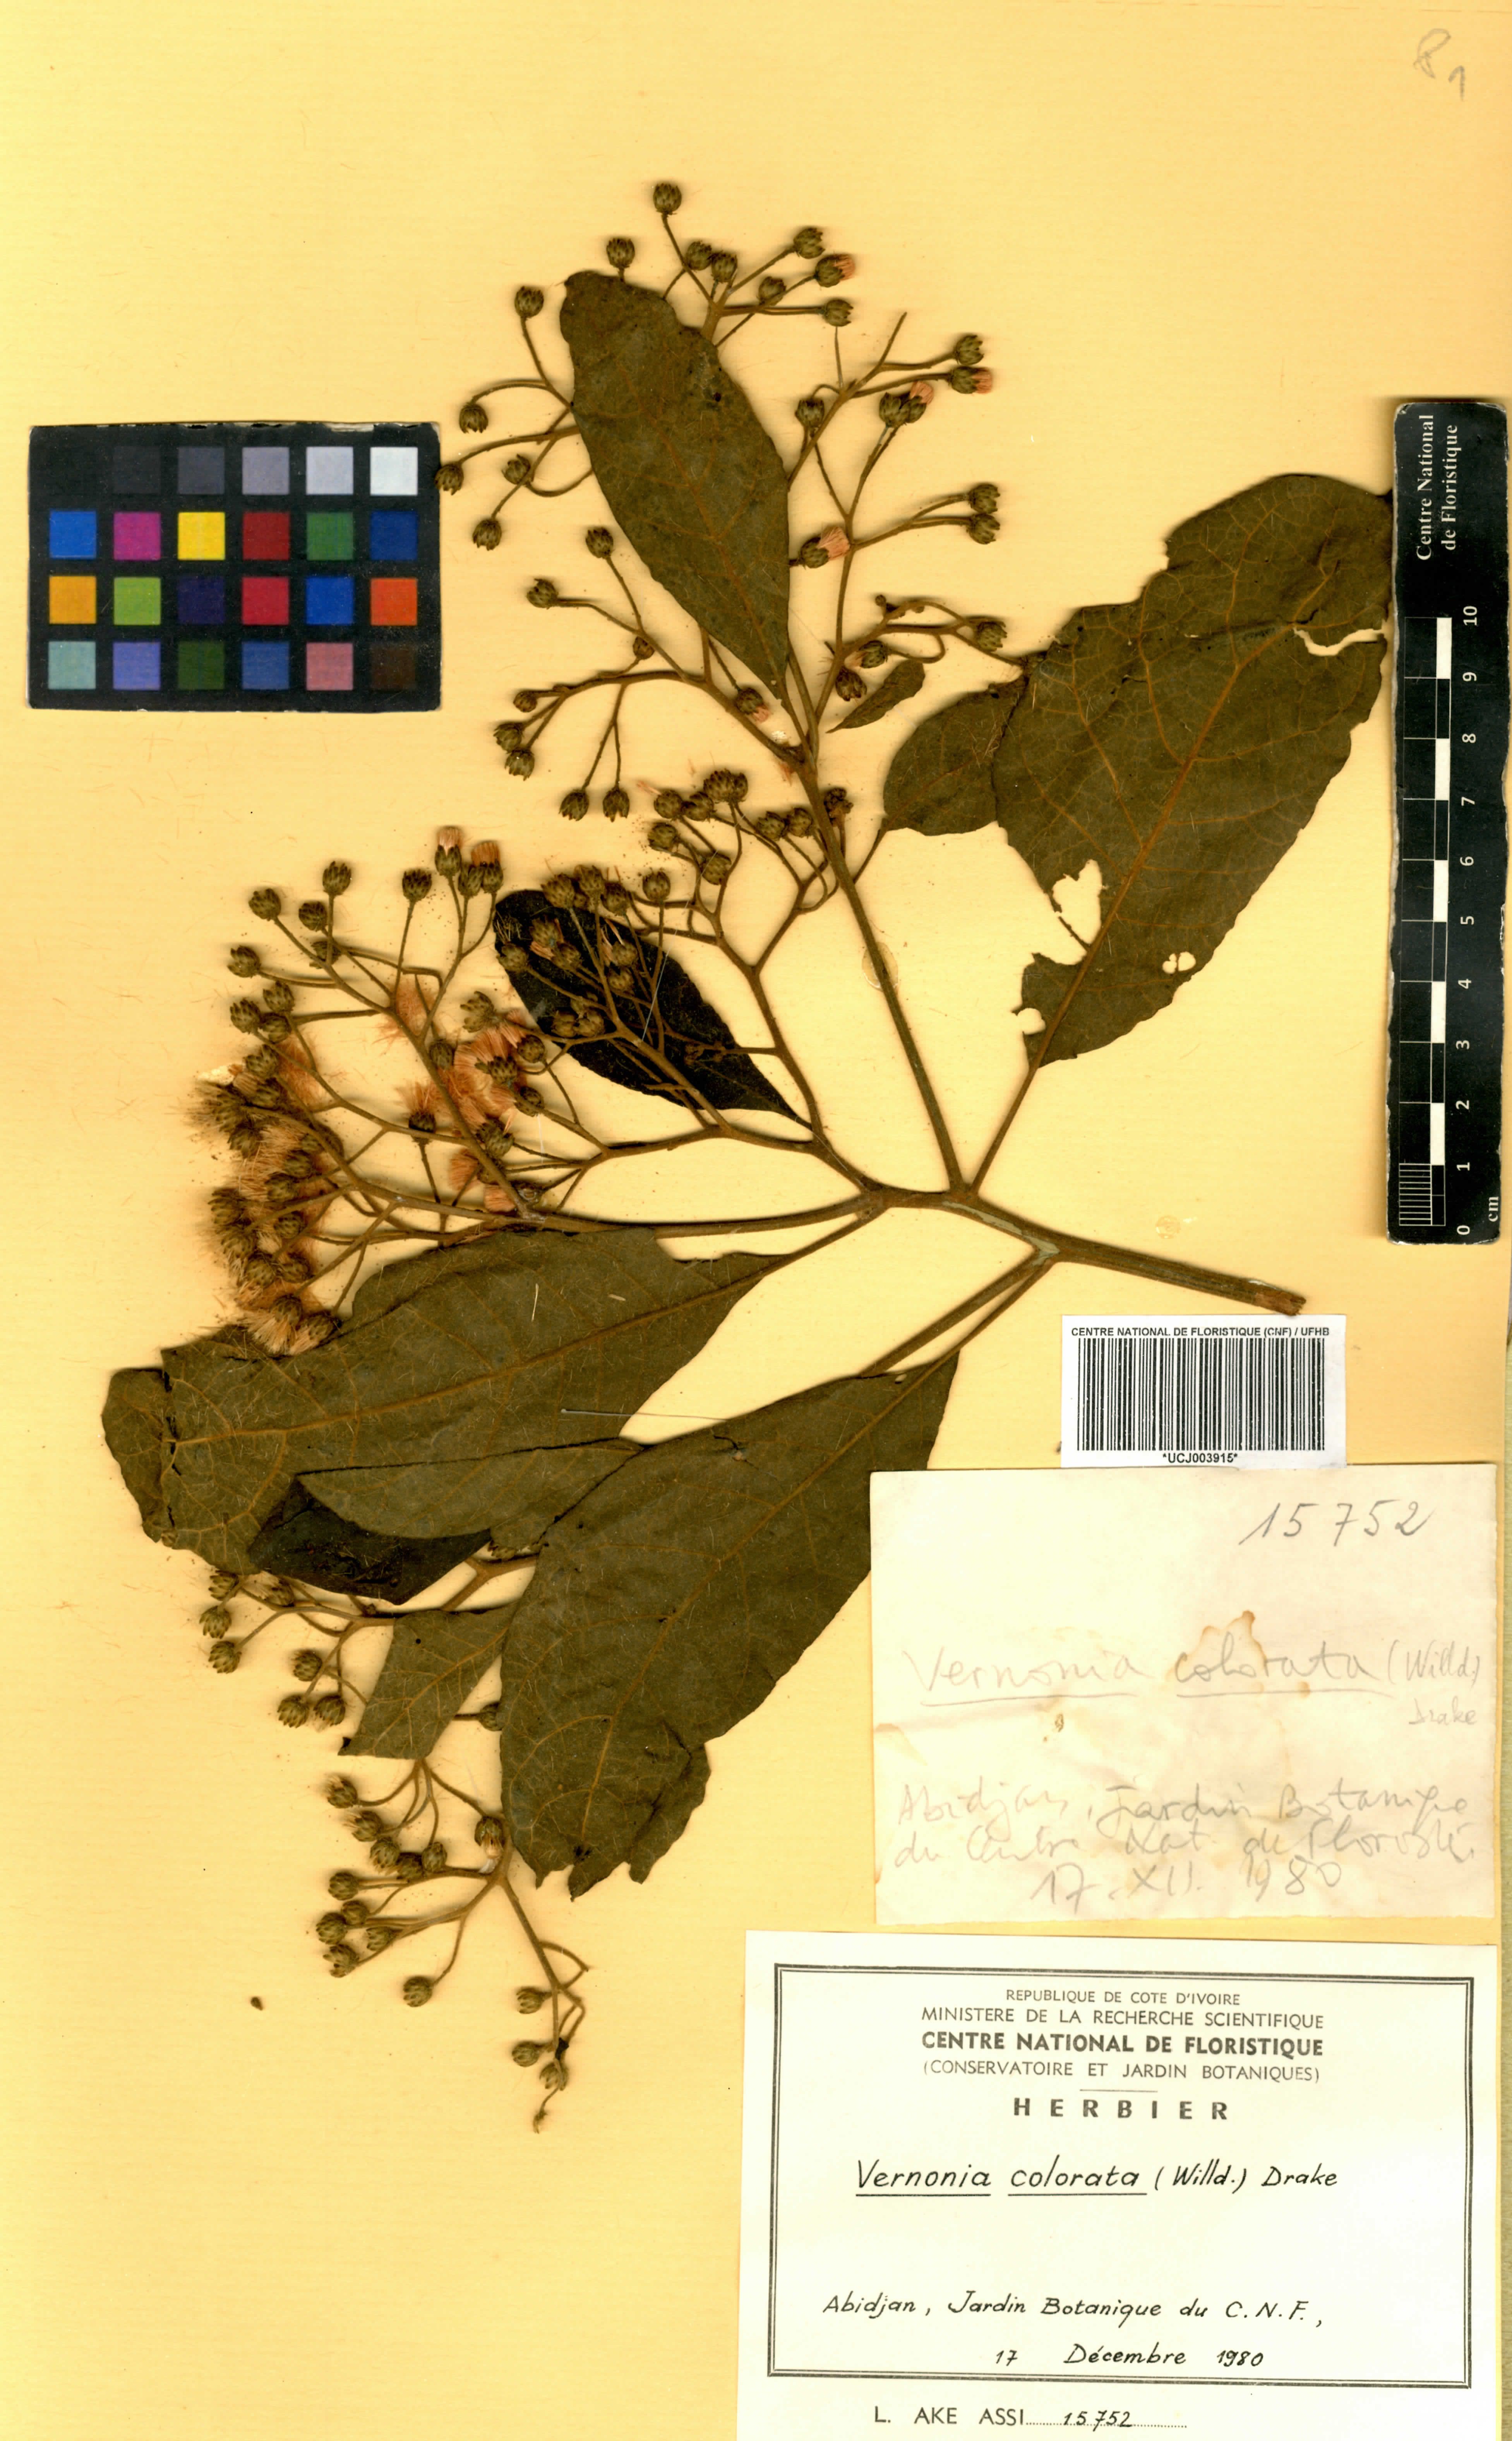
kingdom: Plantae
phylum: Tracheophyta
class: Magnoliopsida
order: Asterales
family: Asteraceae
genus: Vernonia
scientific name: Vernonia colorata
